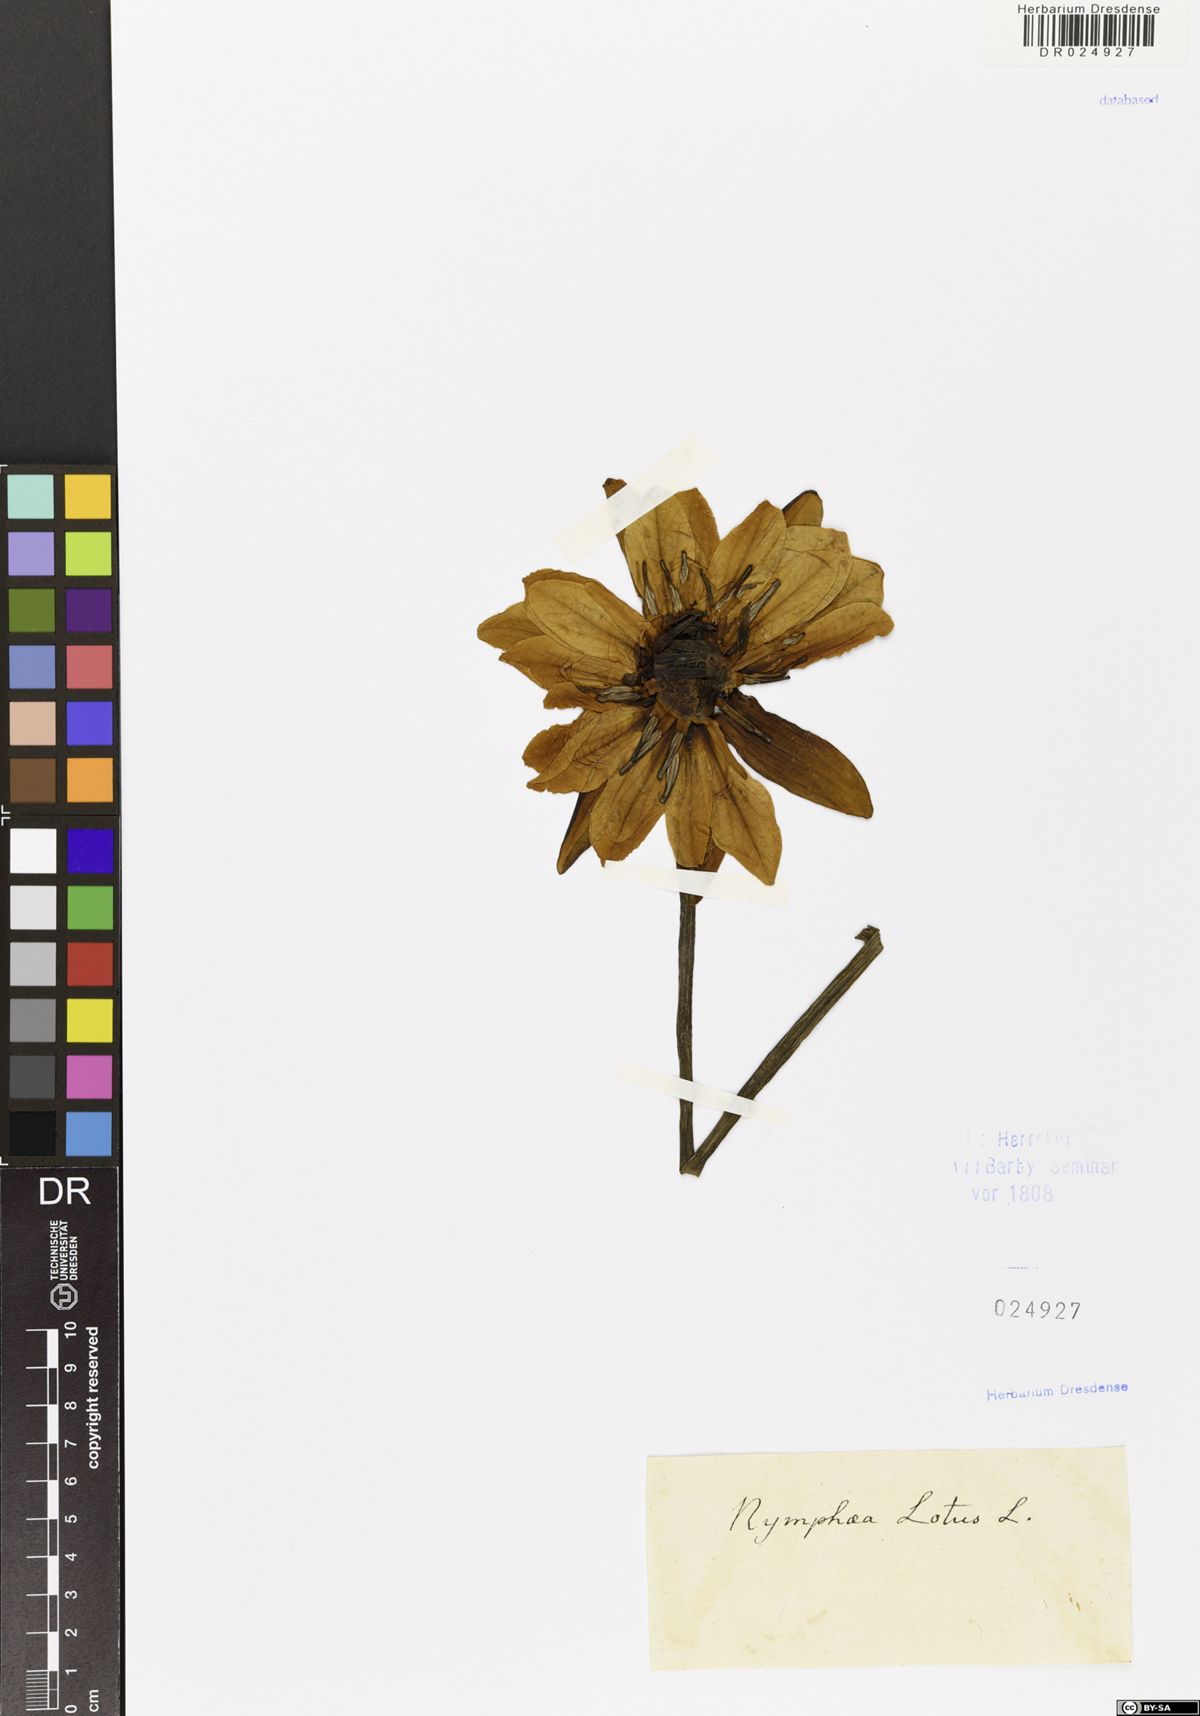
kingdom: Plantae
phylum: Tracheophyta
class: Magnoliopsida
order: Nymphaeales
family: Nymphaeaceae
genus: Nymphaea
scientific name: Nymphaea lotus
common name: White egyptian lotus
